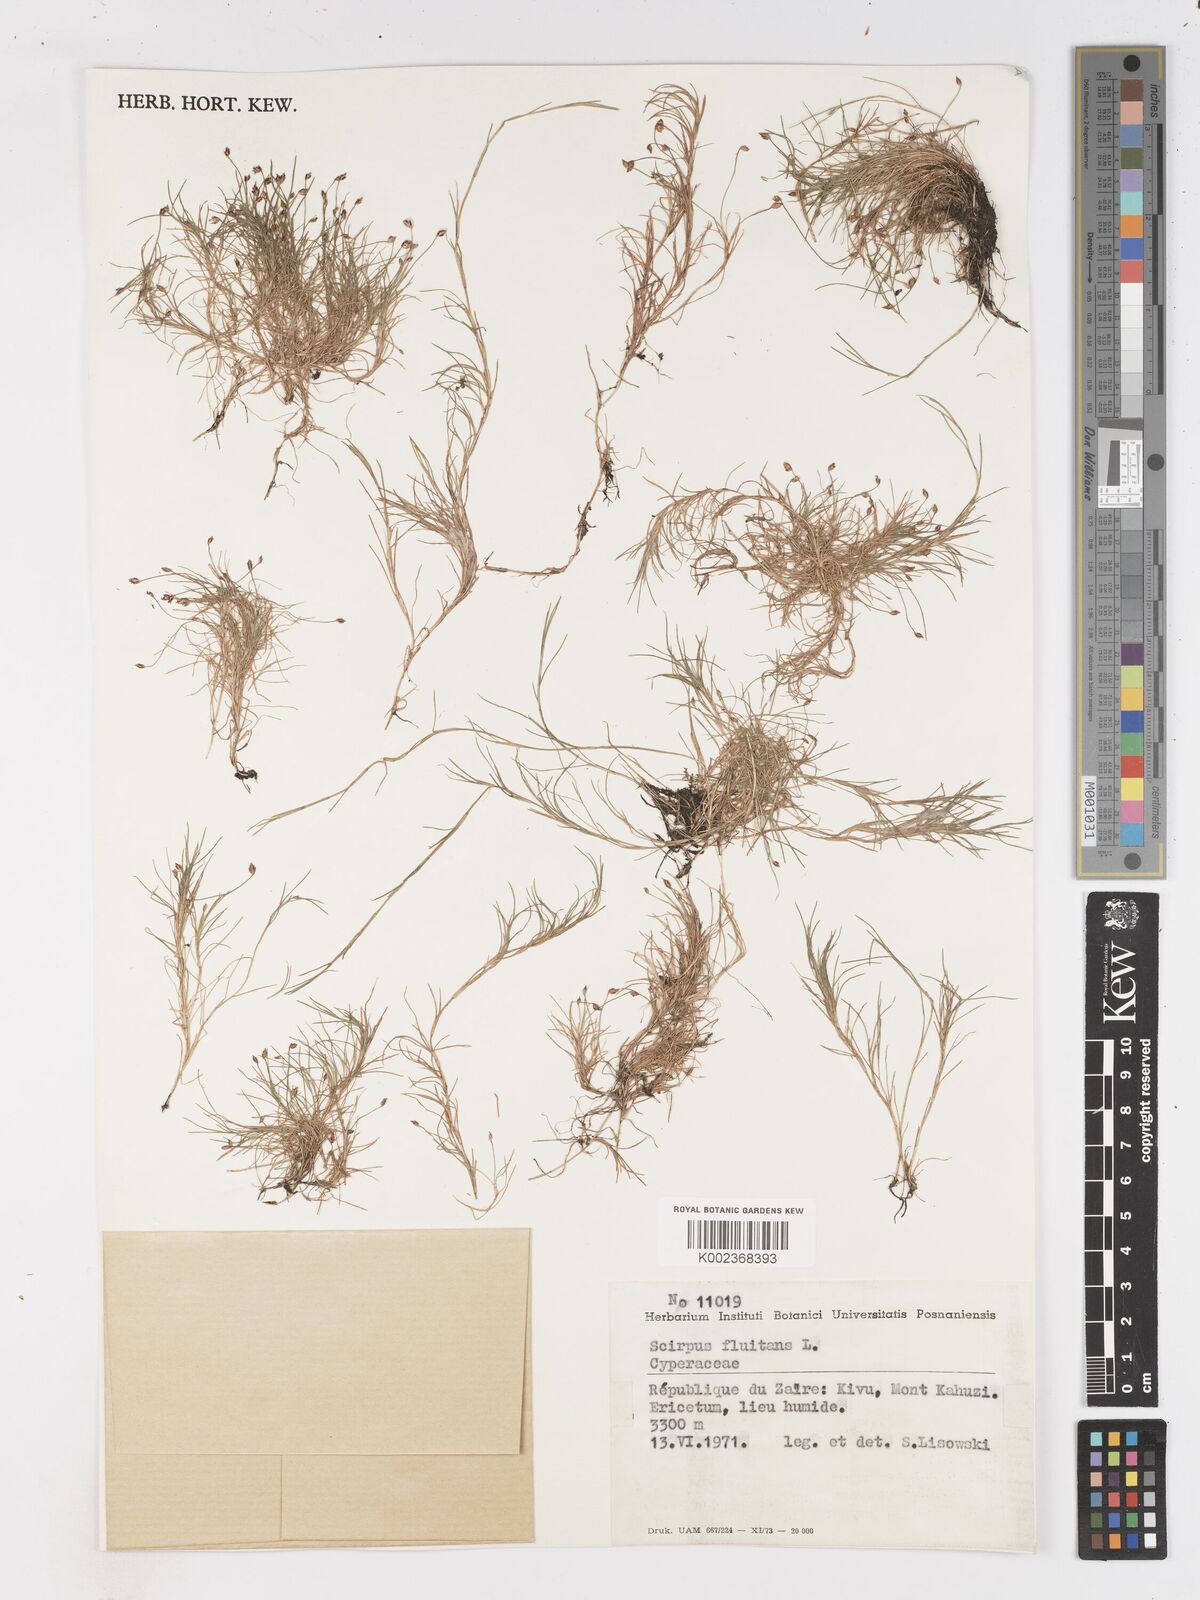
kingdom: Plantae
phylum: Tracheophyta
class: Liliopsida
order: Poales
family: Cyperaceae
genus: Isolepis
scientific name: Isolepis fluitans
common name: Floating club-rush
